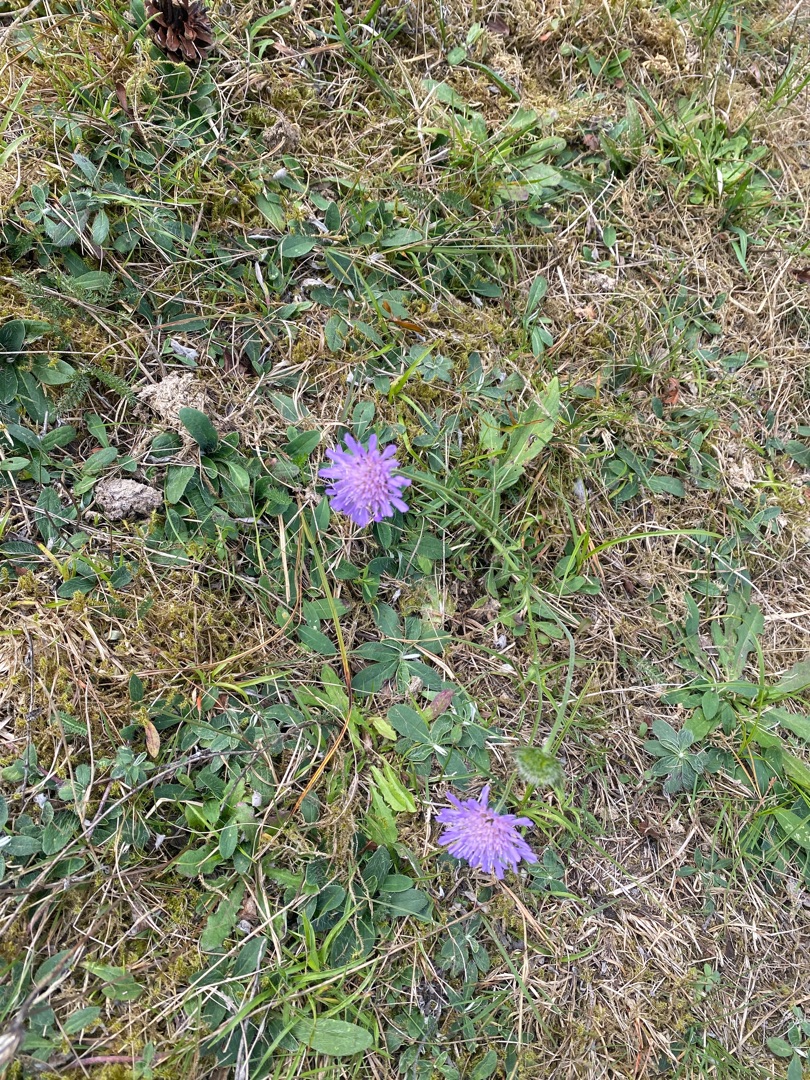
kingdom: Plantae
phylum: Tracheophyta
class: Magnoliopsida
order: Dipsacales
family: Caprifoliaceae
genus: Knautia
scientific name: Knautia arvensis
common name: Blåhat
